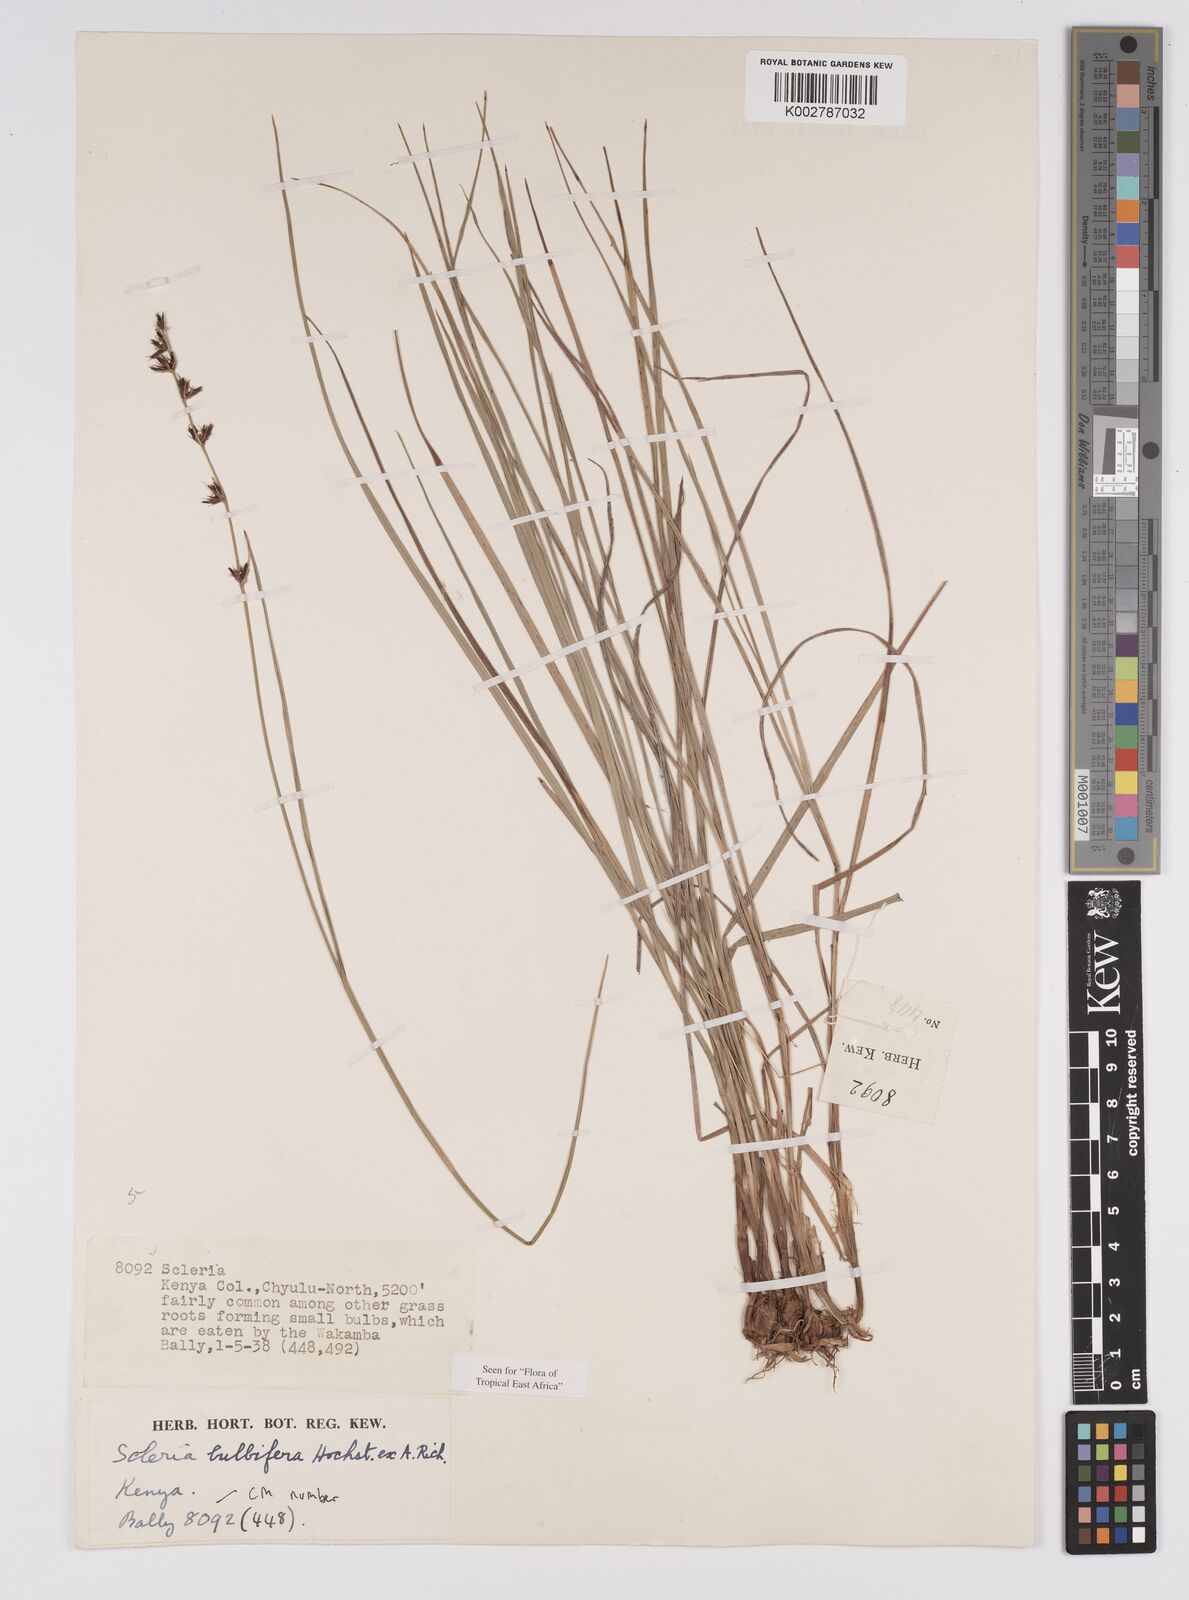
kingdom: Plantae
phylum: Tracheophyta
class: Liliopsida
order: Poales
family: Cyperaceae
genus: Scleria
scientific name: Scleria bulbifera
